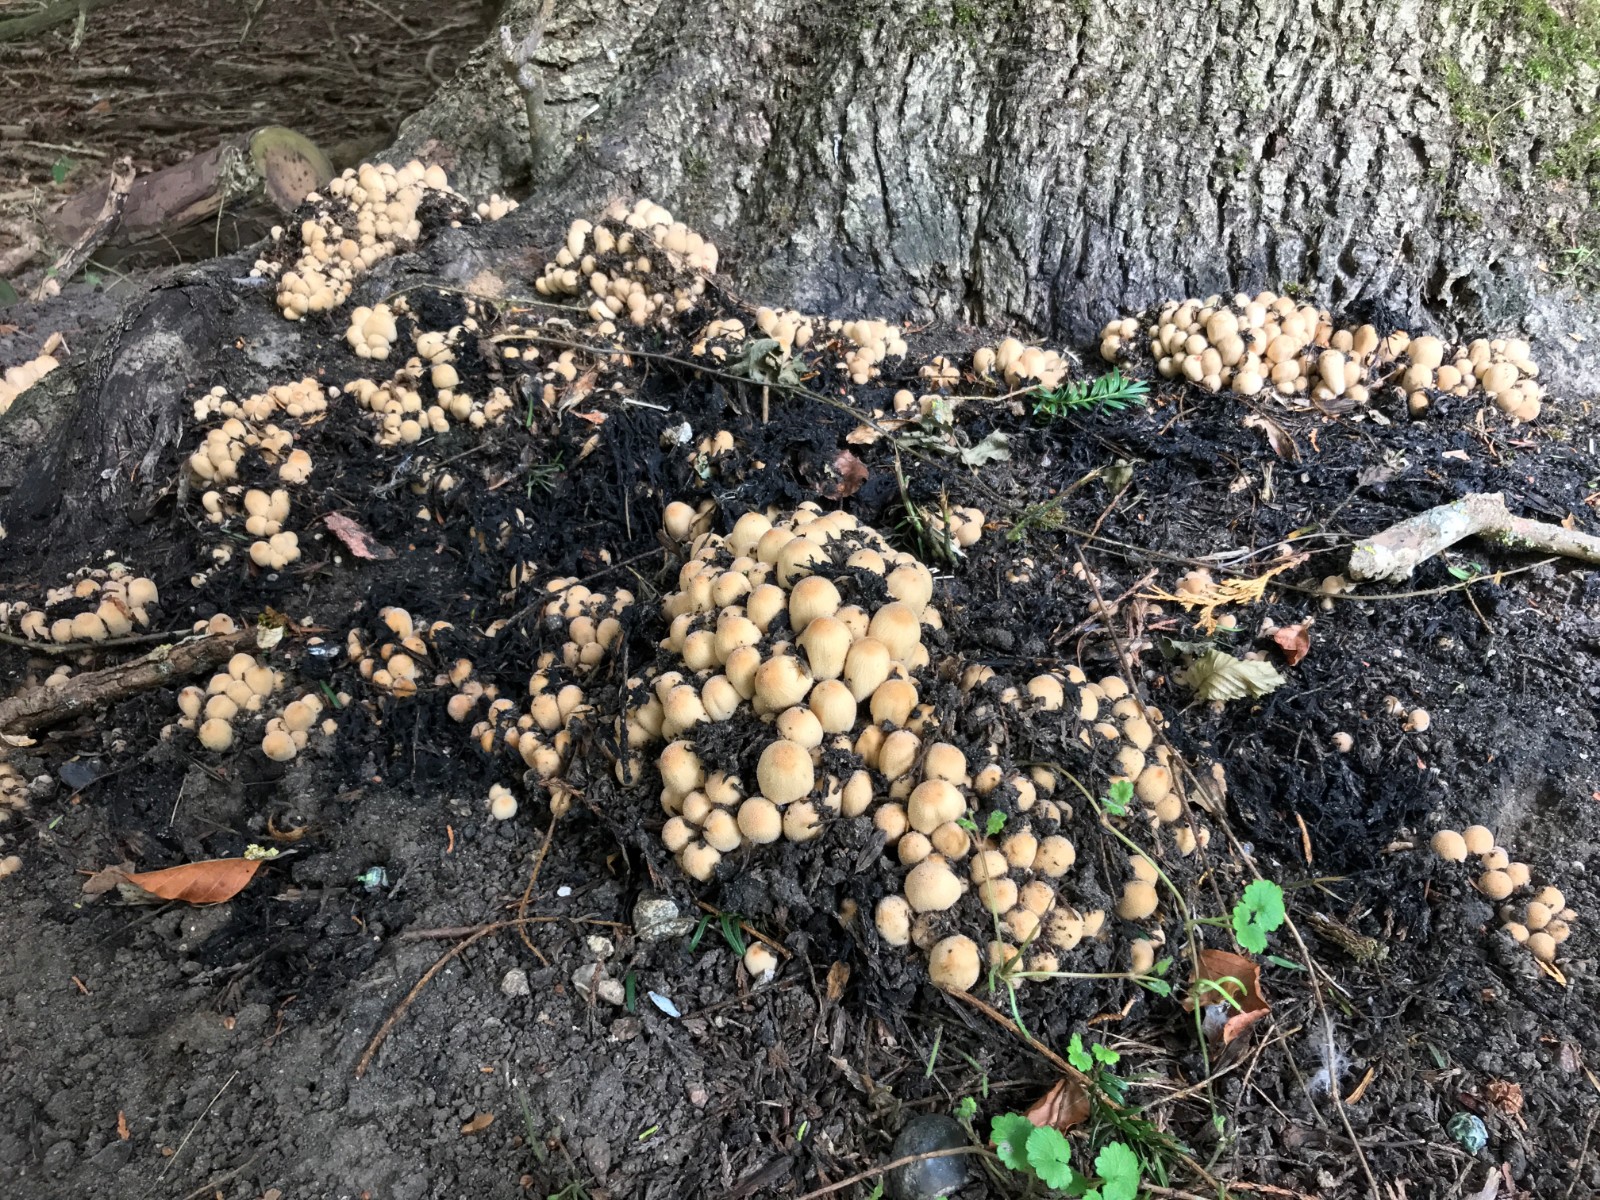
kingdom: Fungi
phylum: Basidiomycota
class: Agaricomycetes
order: Agaricales
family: Psathyrellaceae
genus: Coprinellus
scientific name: Coprinellus micaceus
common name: glimmer-blækhat
